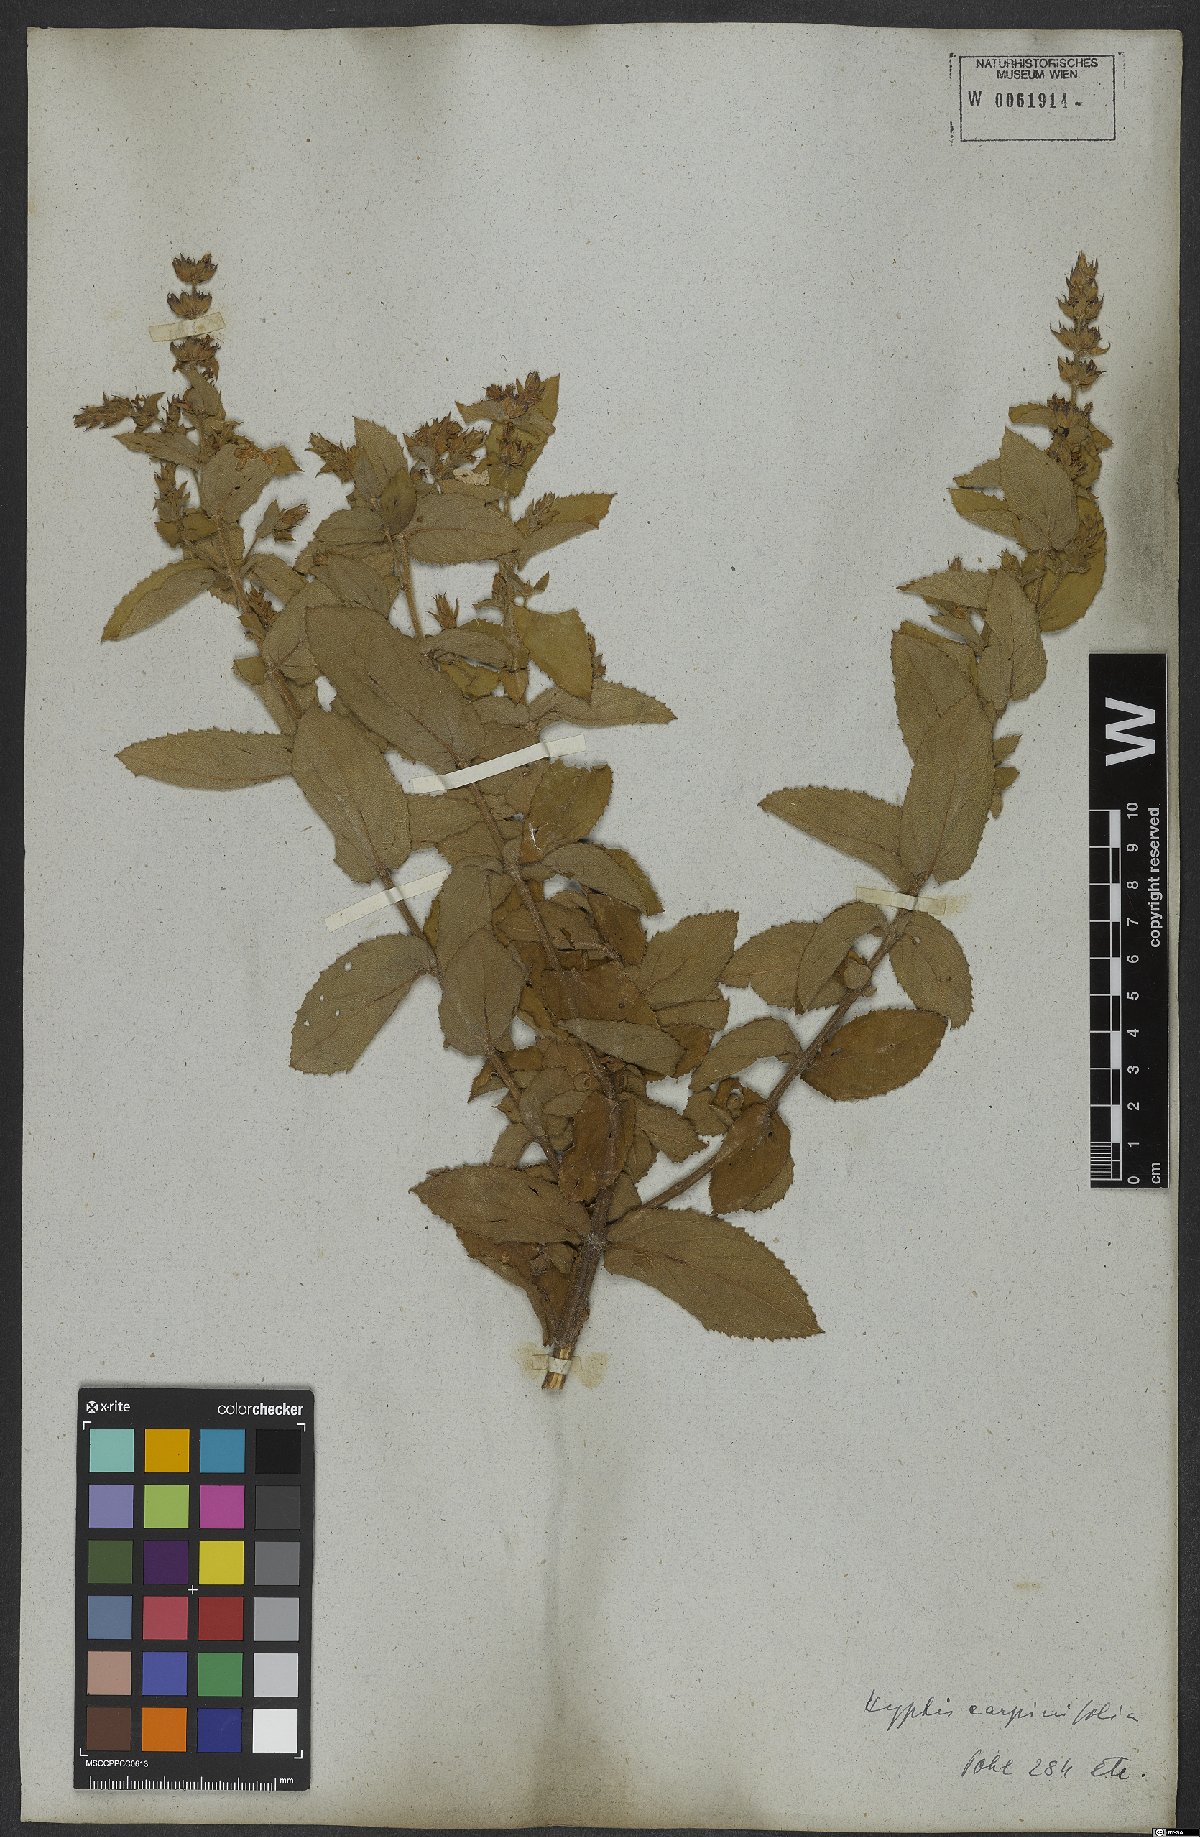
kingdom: Plantae
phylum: Tracheophyta
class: Magnoliopsida
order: Lamiales
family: Lamiaceae
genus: Cantinoa
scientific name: Cantinoa carpinifolia
